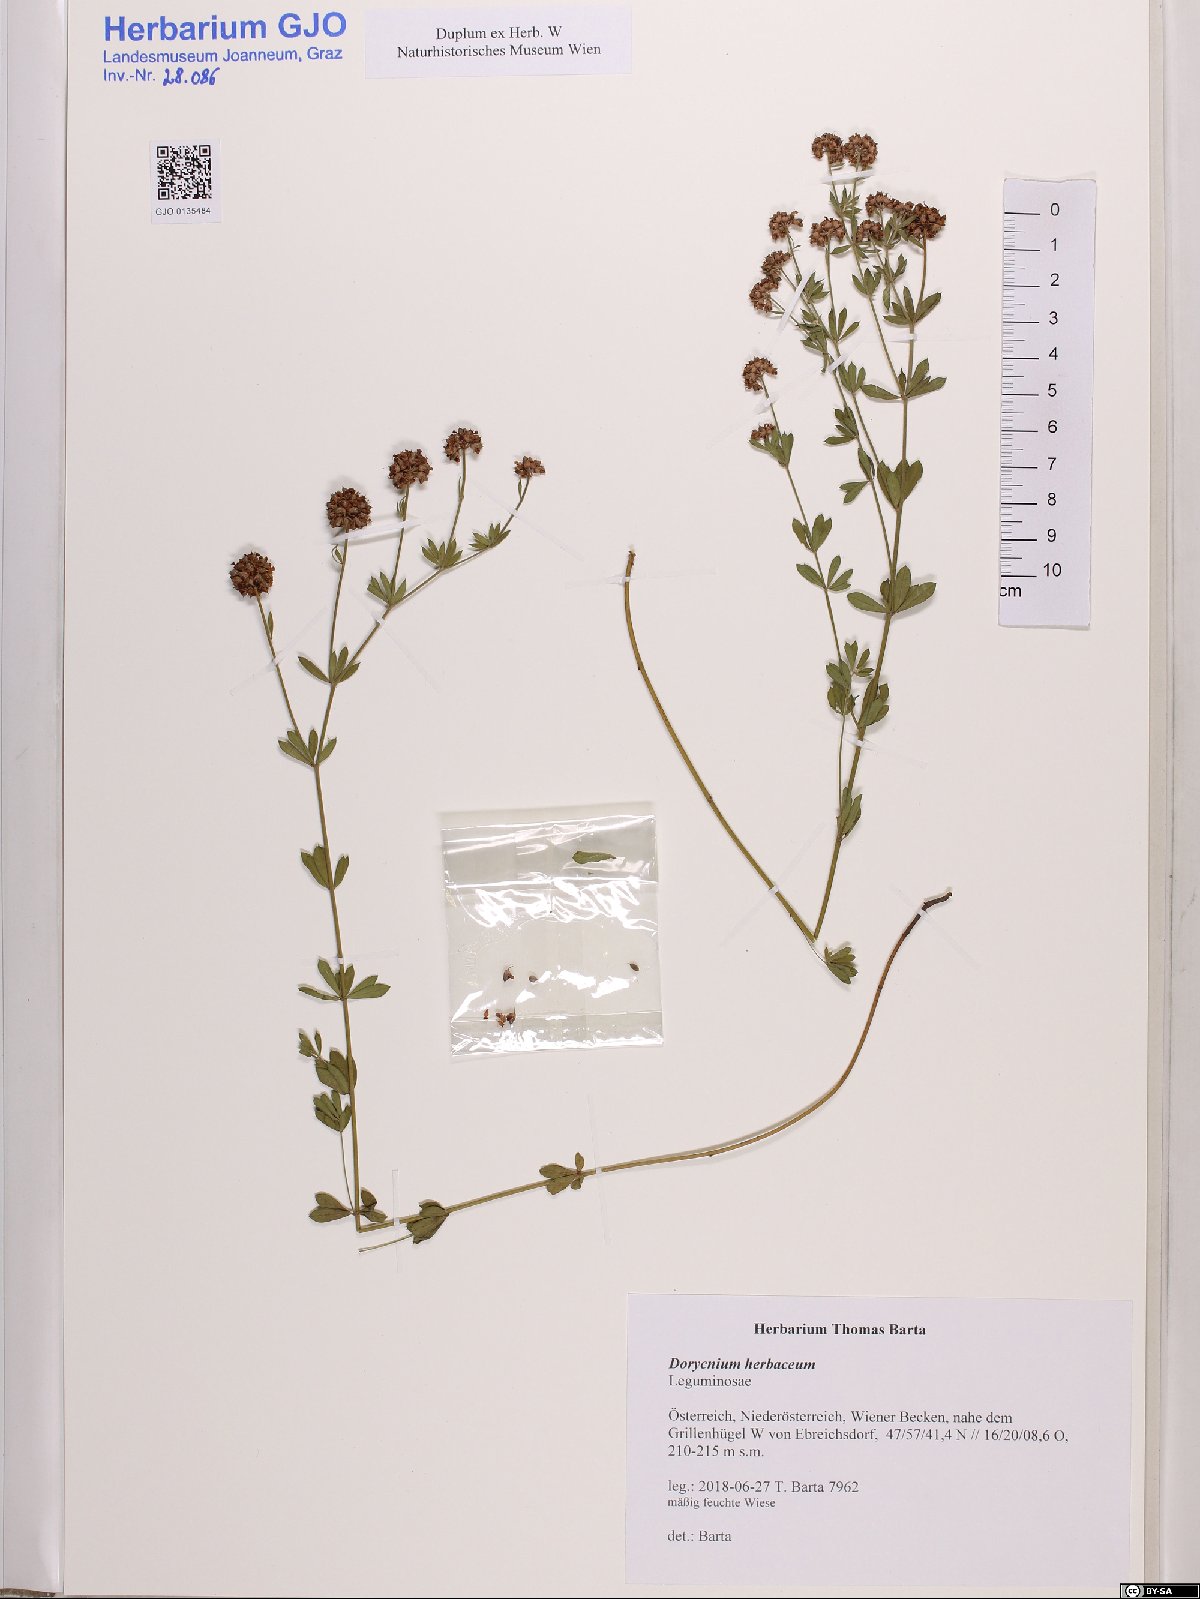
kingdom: Plantae
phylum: Tracheophyta
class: Magnoliopsida
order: Fabales
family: Fabaceae
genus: Lotus
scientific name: Lotus herbaceus
